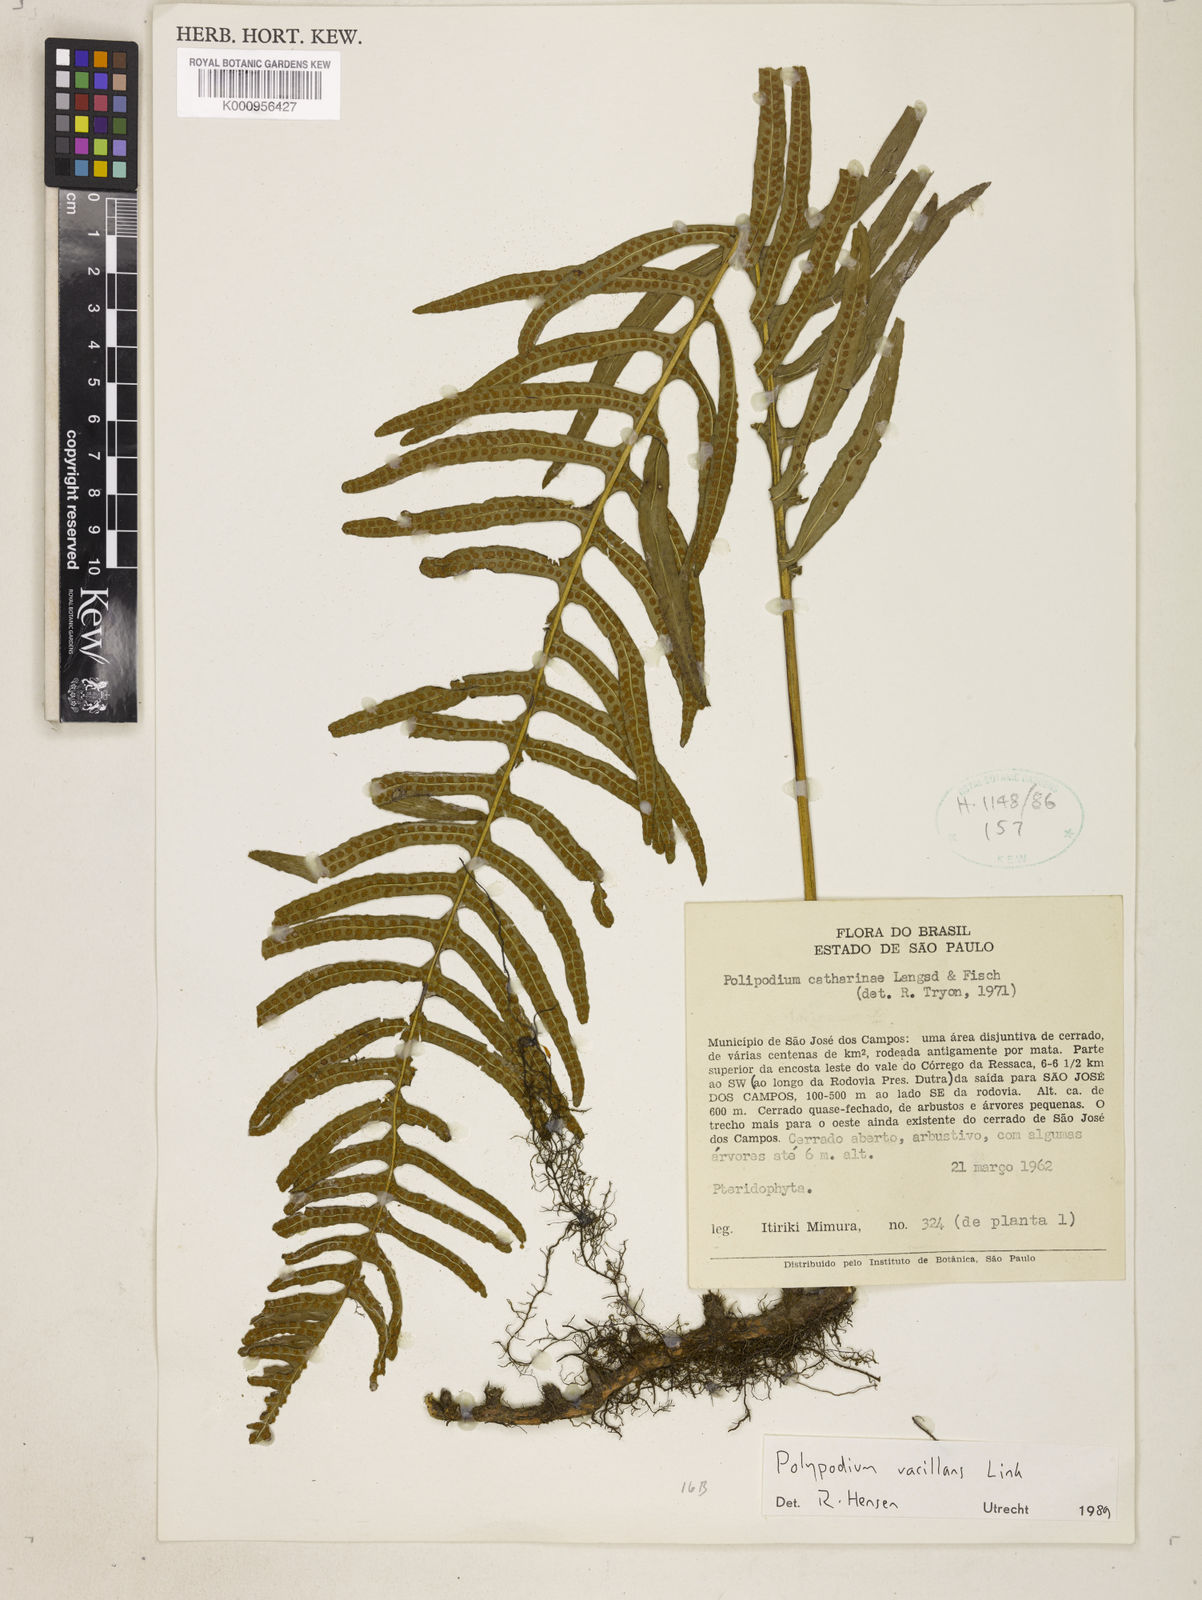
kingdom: Plantae
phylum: Tracheophyta
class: Polypodiopsida
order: Polypodiales
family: Polypodiaceae
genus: Serpocaulon
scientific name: Serpocaulon vacillans
